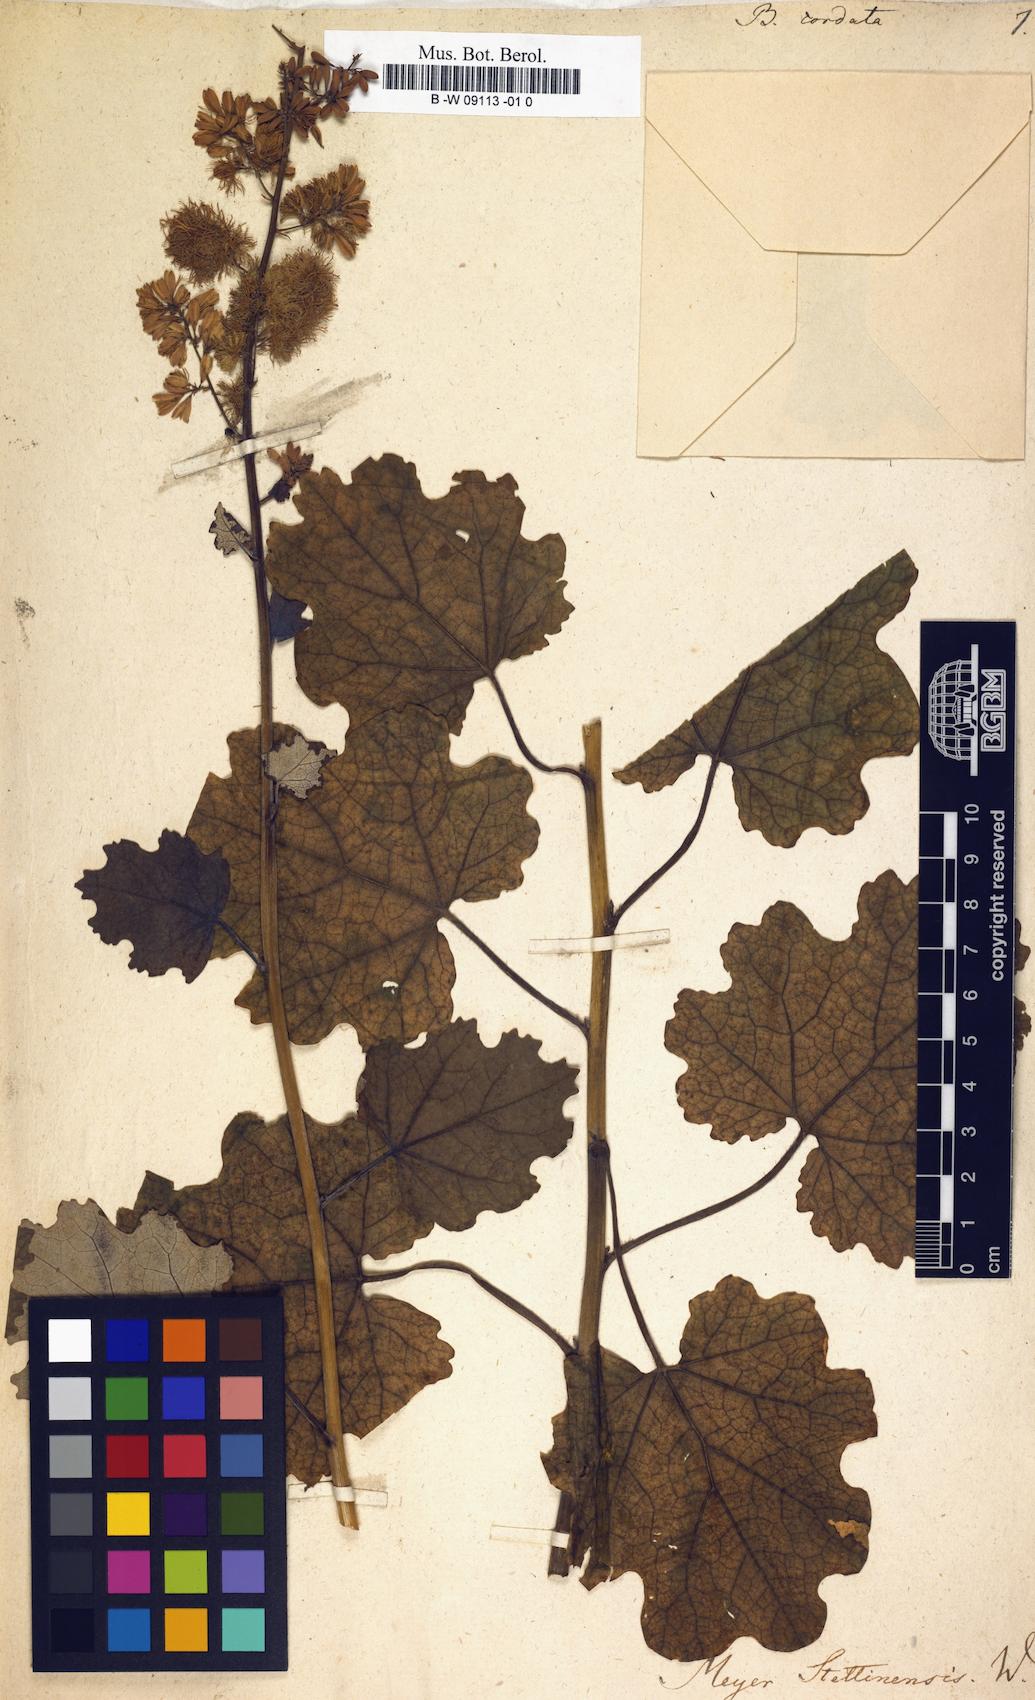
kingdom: Plantae
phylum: Tracheophyta
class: Magnoliopsida
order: Ranunculales
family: Papaveraceae
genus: Macleaya
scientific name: Macleaya cordata
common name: Plume poppy
